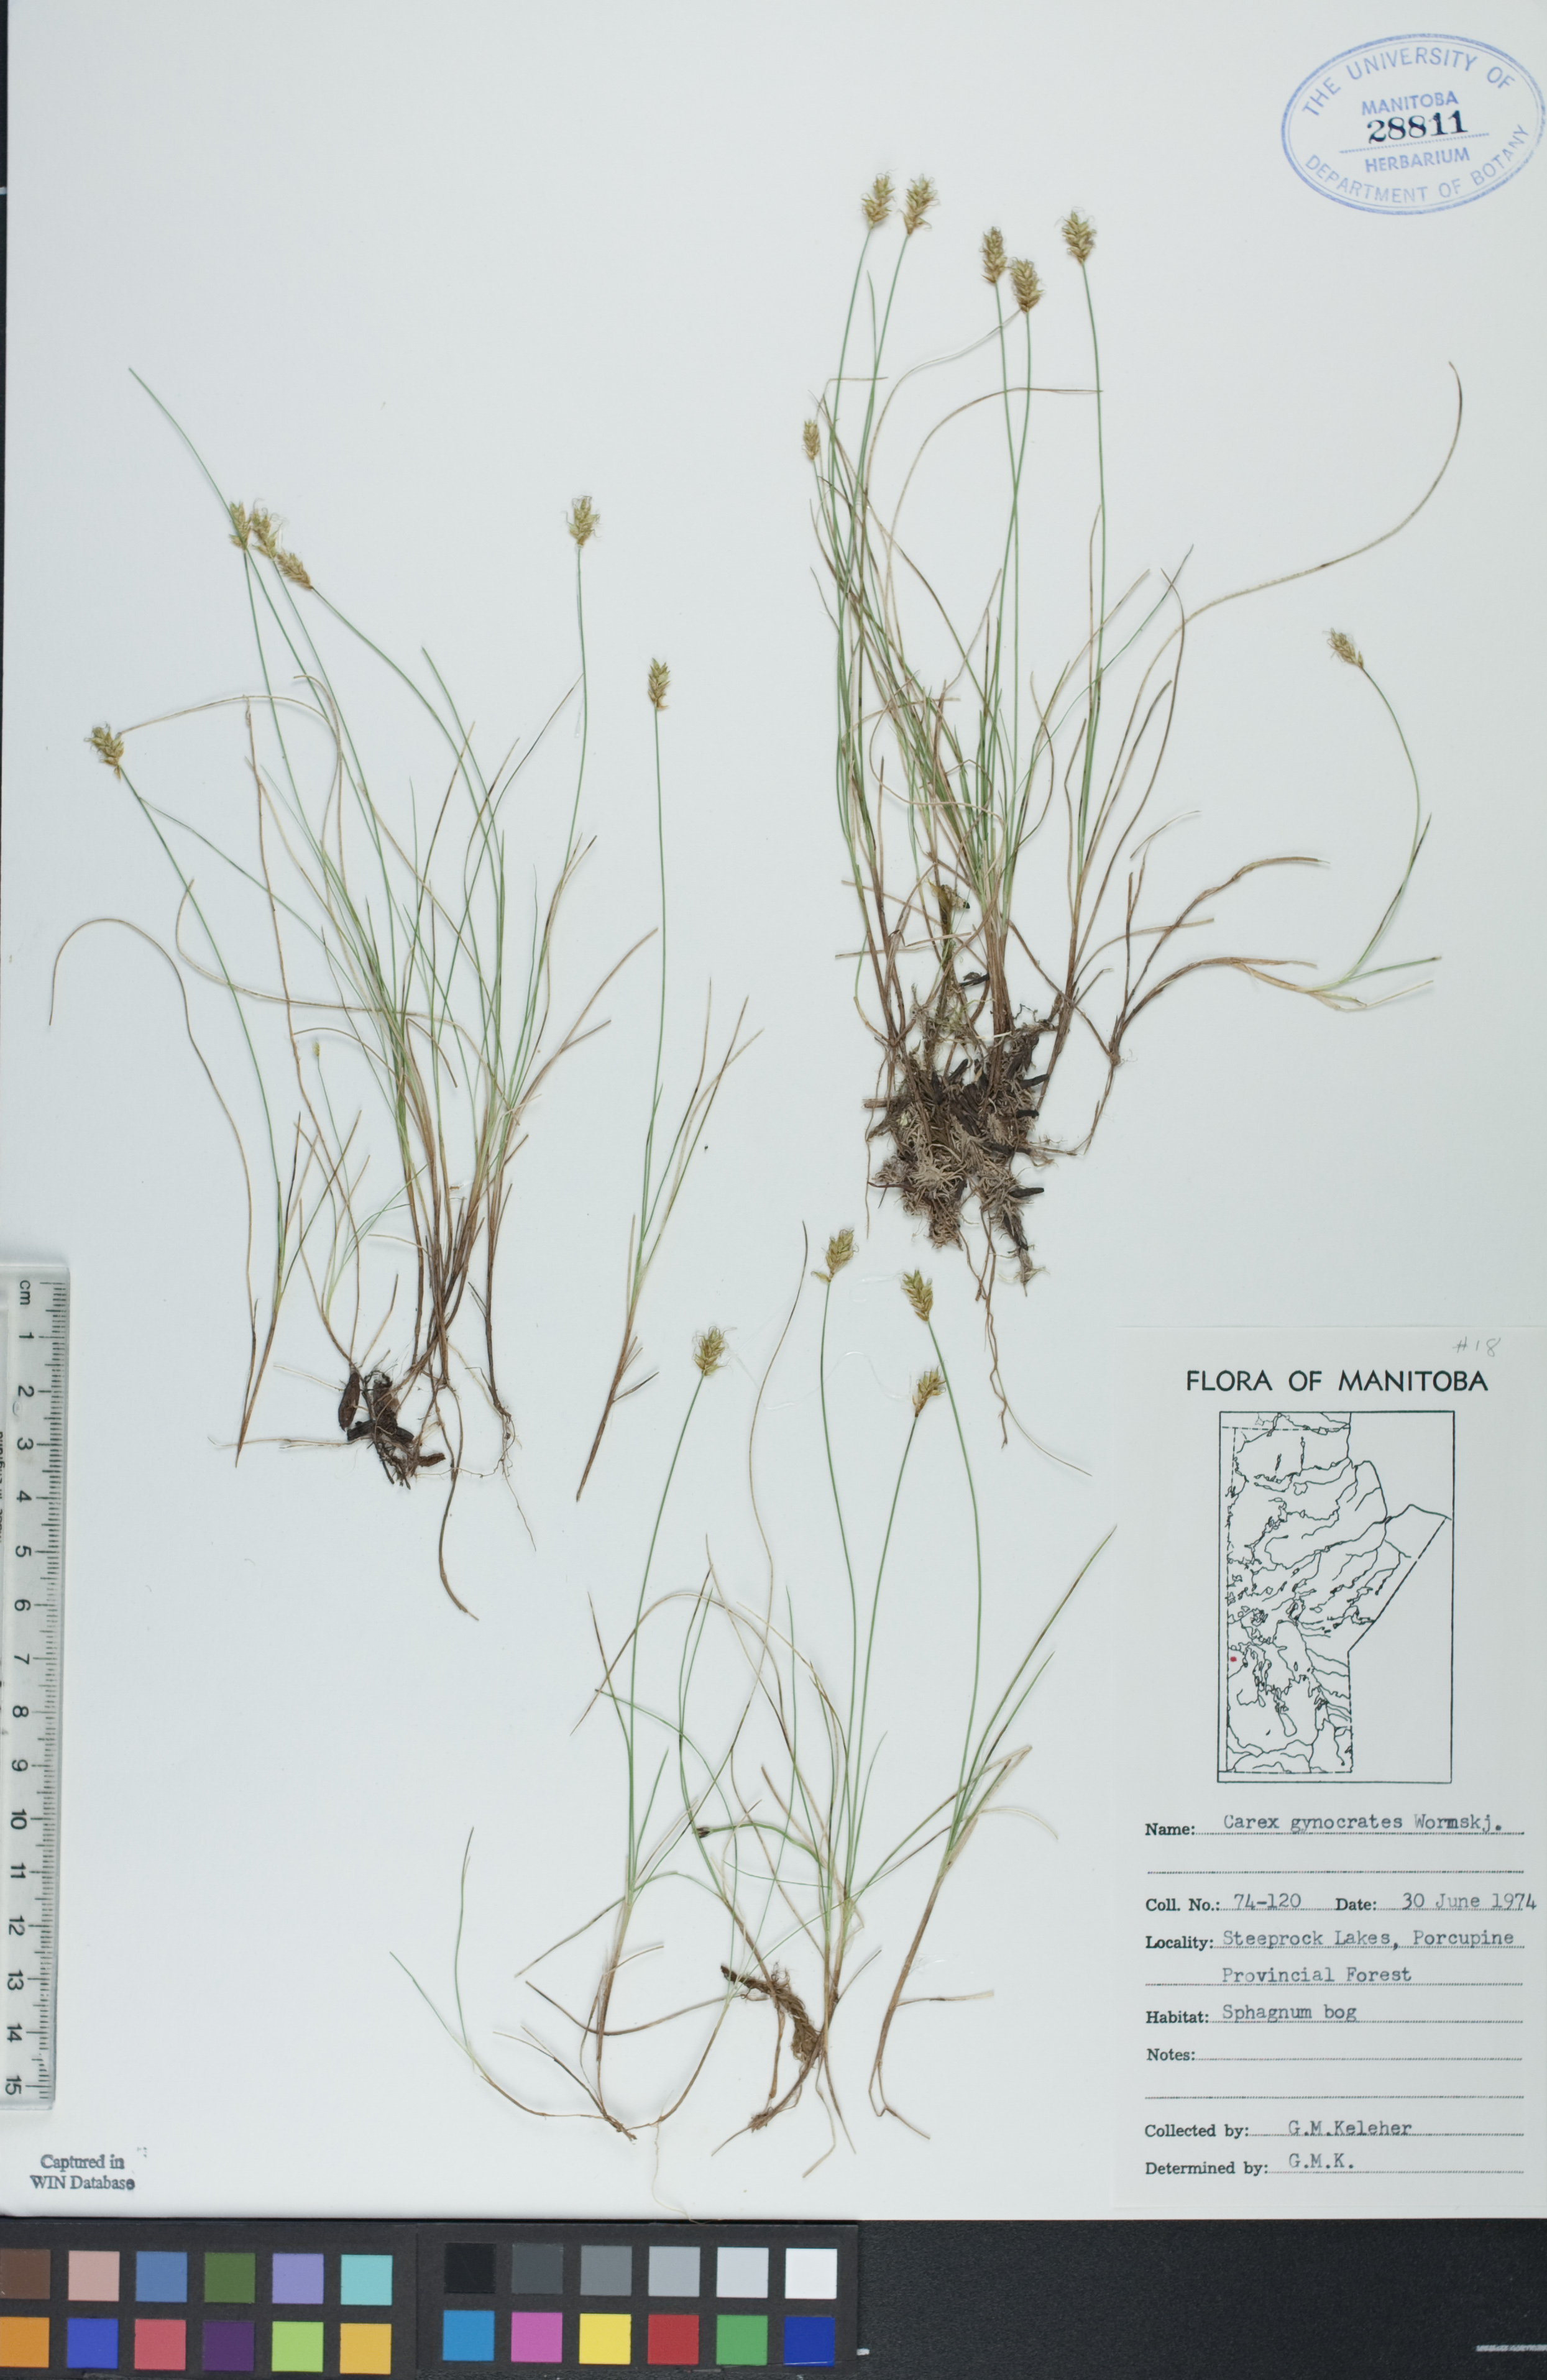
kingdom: Plantae
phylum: Tracheophyta
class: Liliopsida
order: Poales
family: Cyperaceae
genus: Carex
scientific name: Carex nardina
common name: Nard sedge
